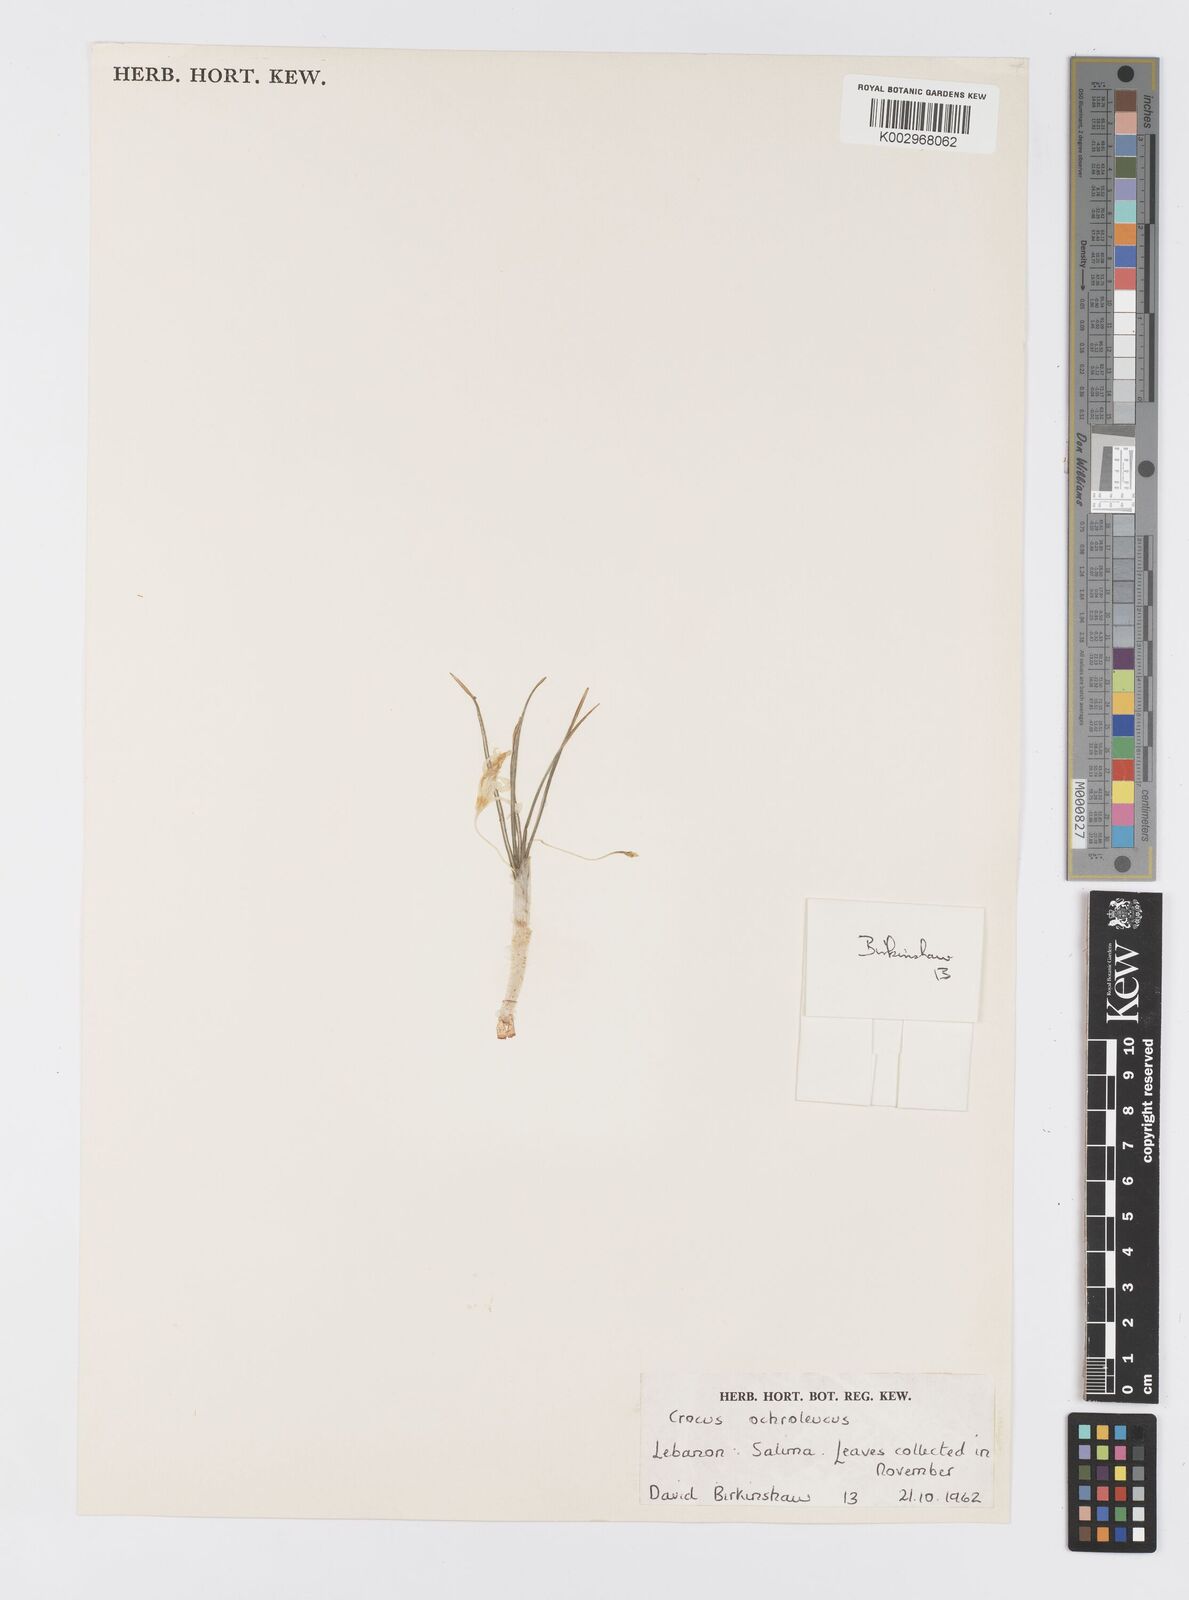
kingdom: Plantae
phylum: Tracheophyta
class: Liliopsida
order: Asparagales
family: Iridaceae
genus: Crocus
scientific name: Crocus ochroleucus
